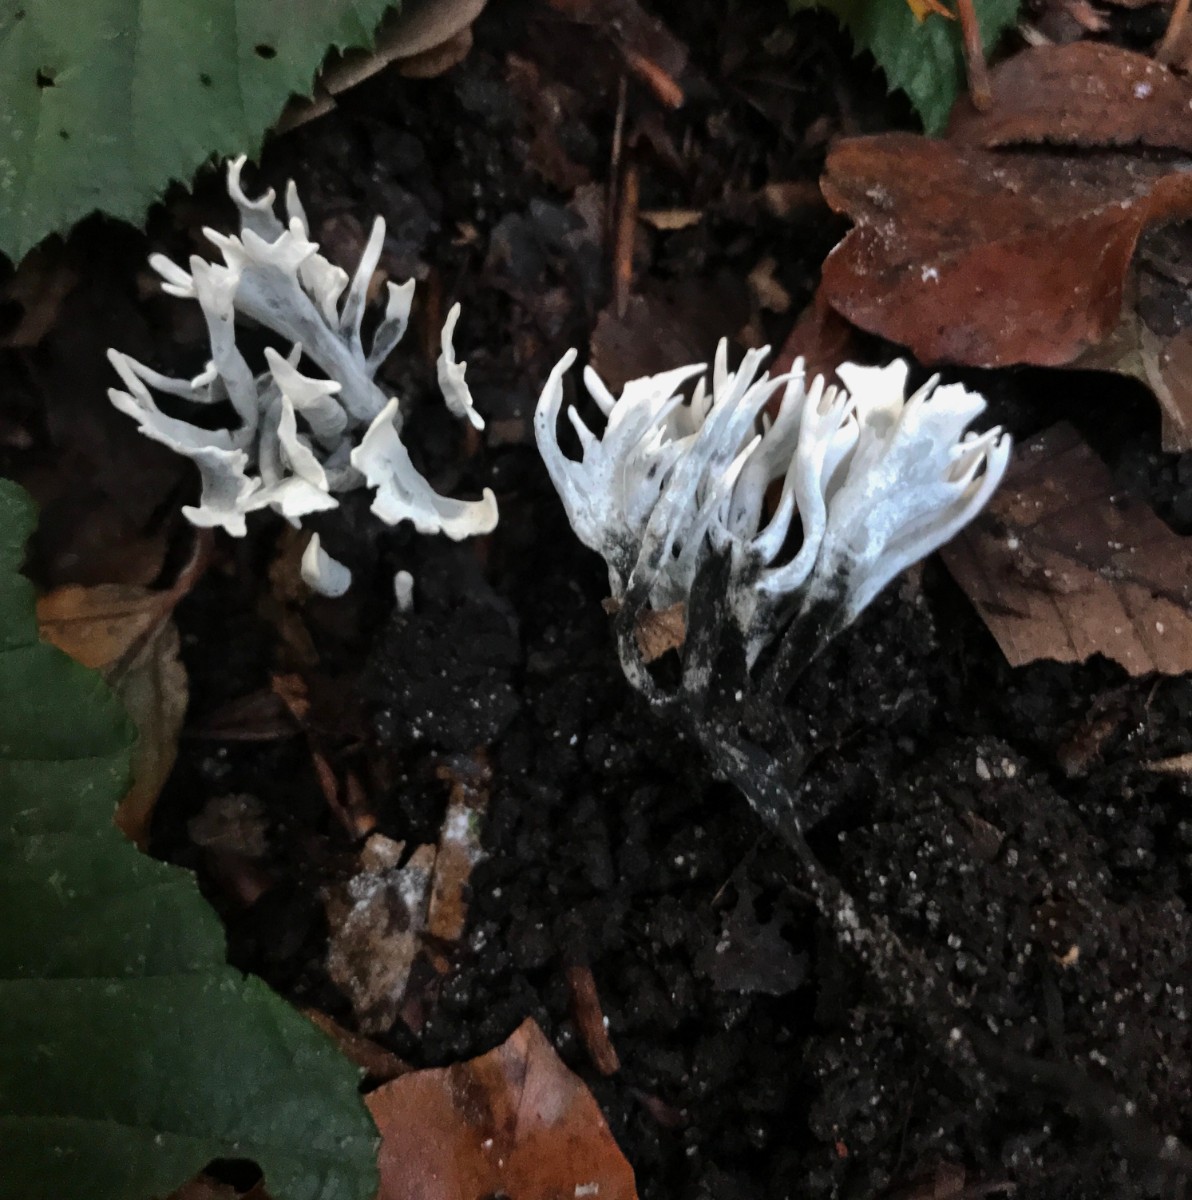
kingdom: Fungi
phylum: Ascomycota
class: Sordariomycetes
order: Xylariales
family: Xylariaceae
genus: Xylaria
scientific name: Xylaria hypoxylon
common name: grenet stødsvamp
